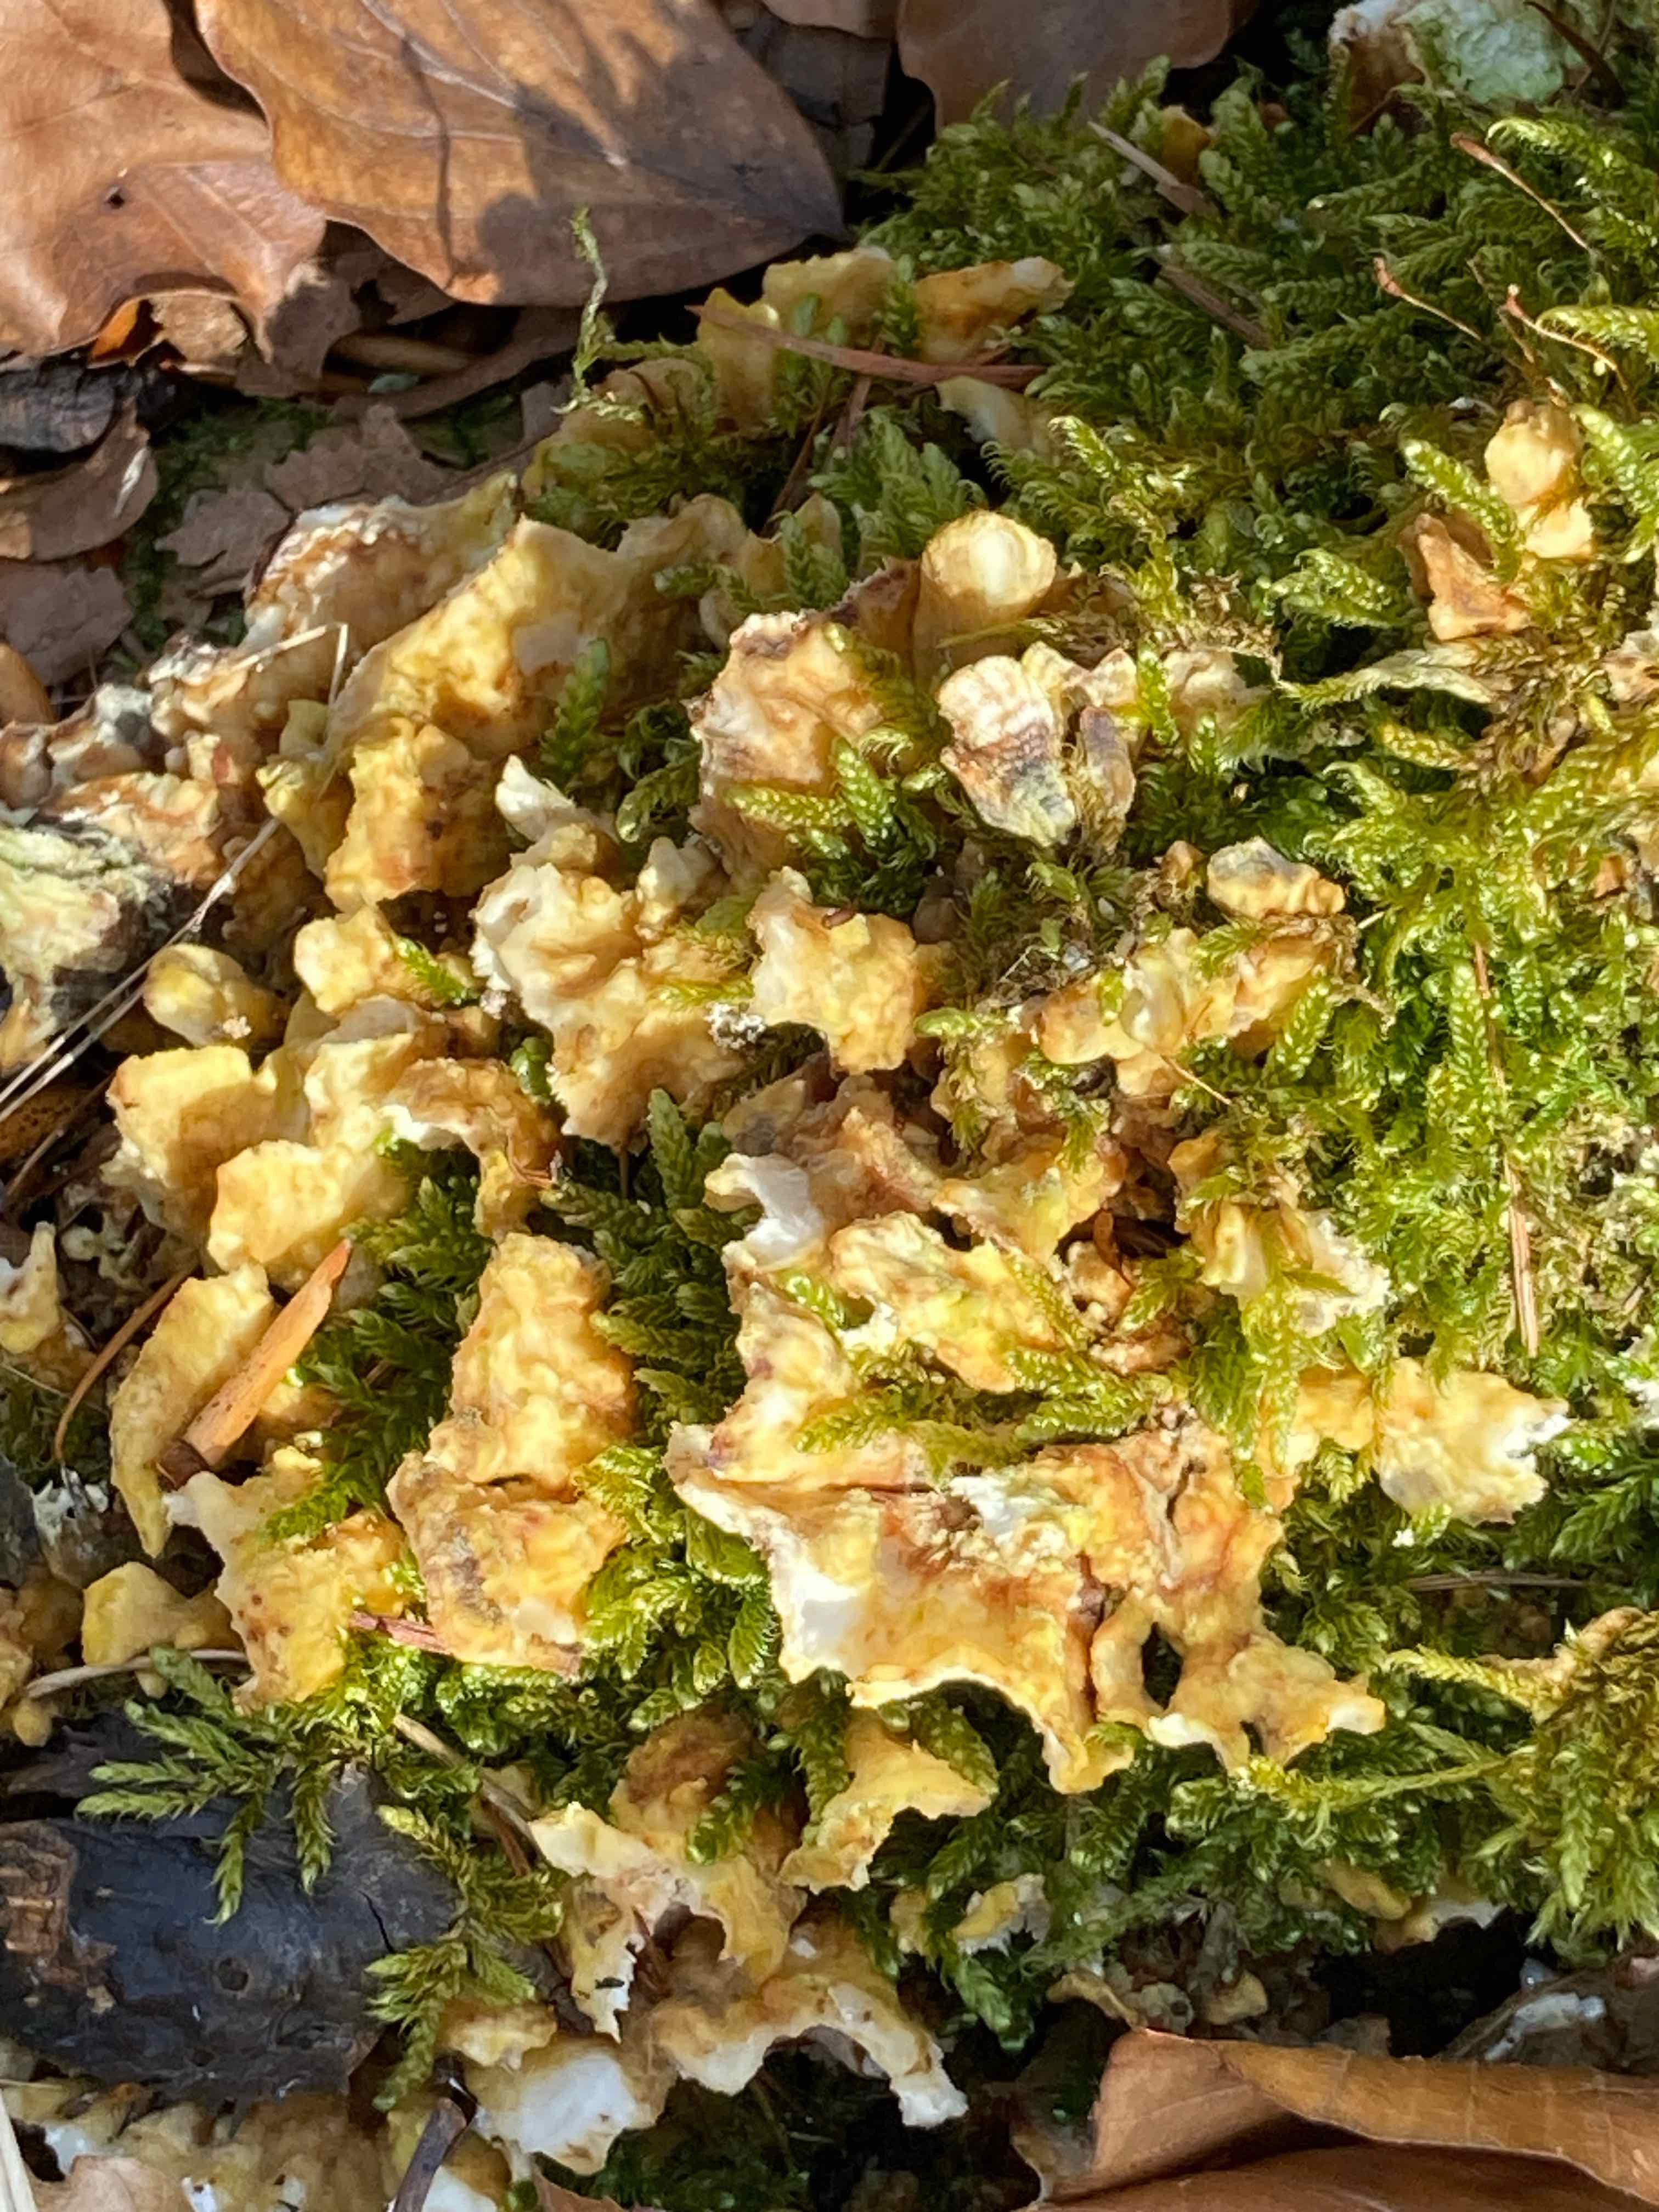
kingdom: Fungi
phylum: Basidiomycota
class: Agaricomycetes
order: Polyporales
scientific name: Polyporales
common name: poresvampordenen
